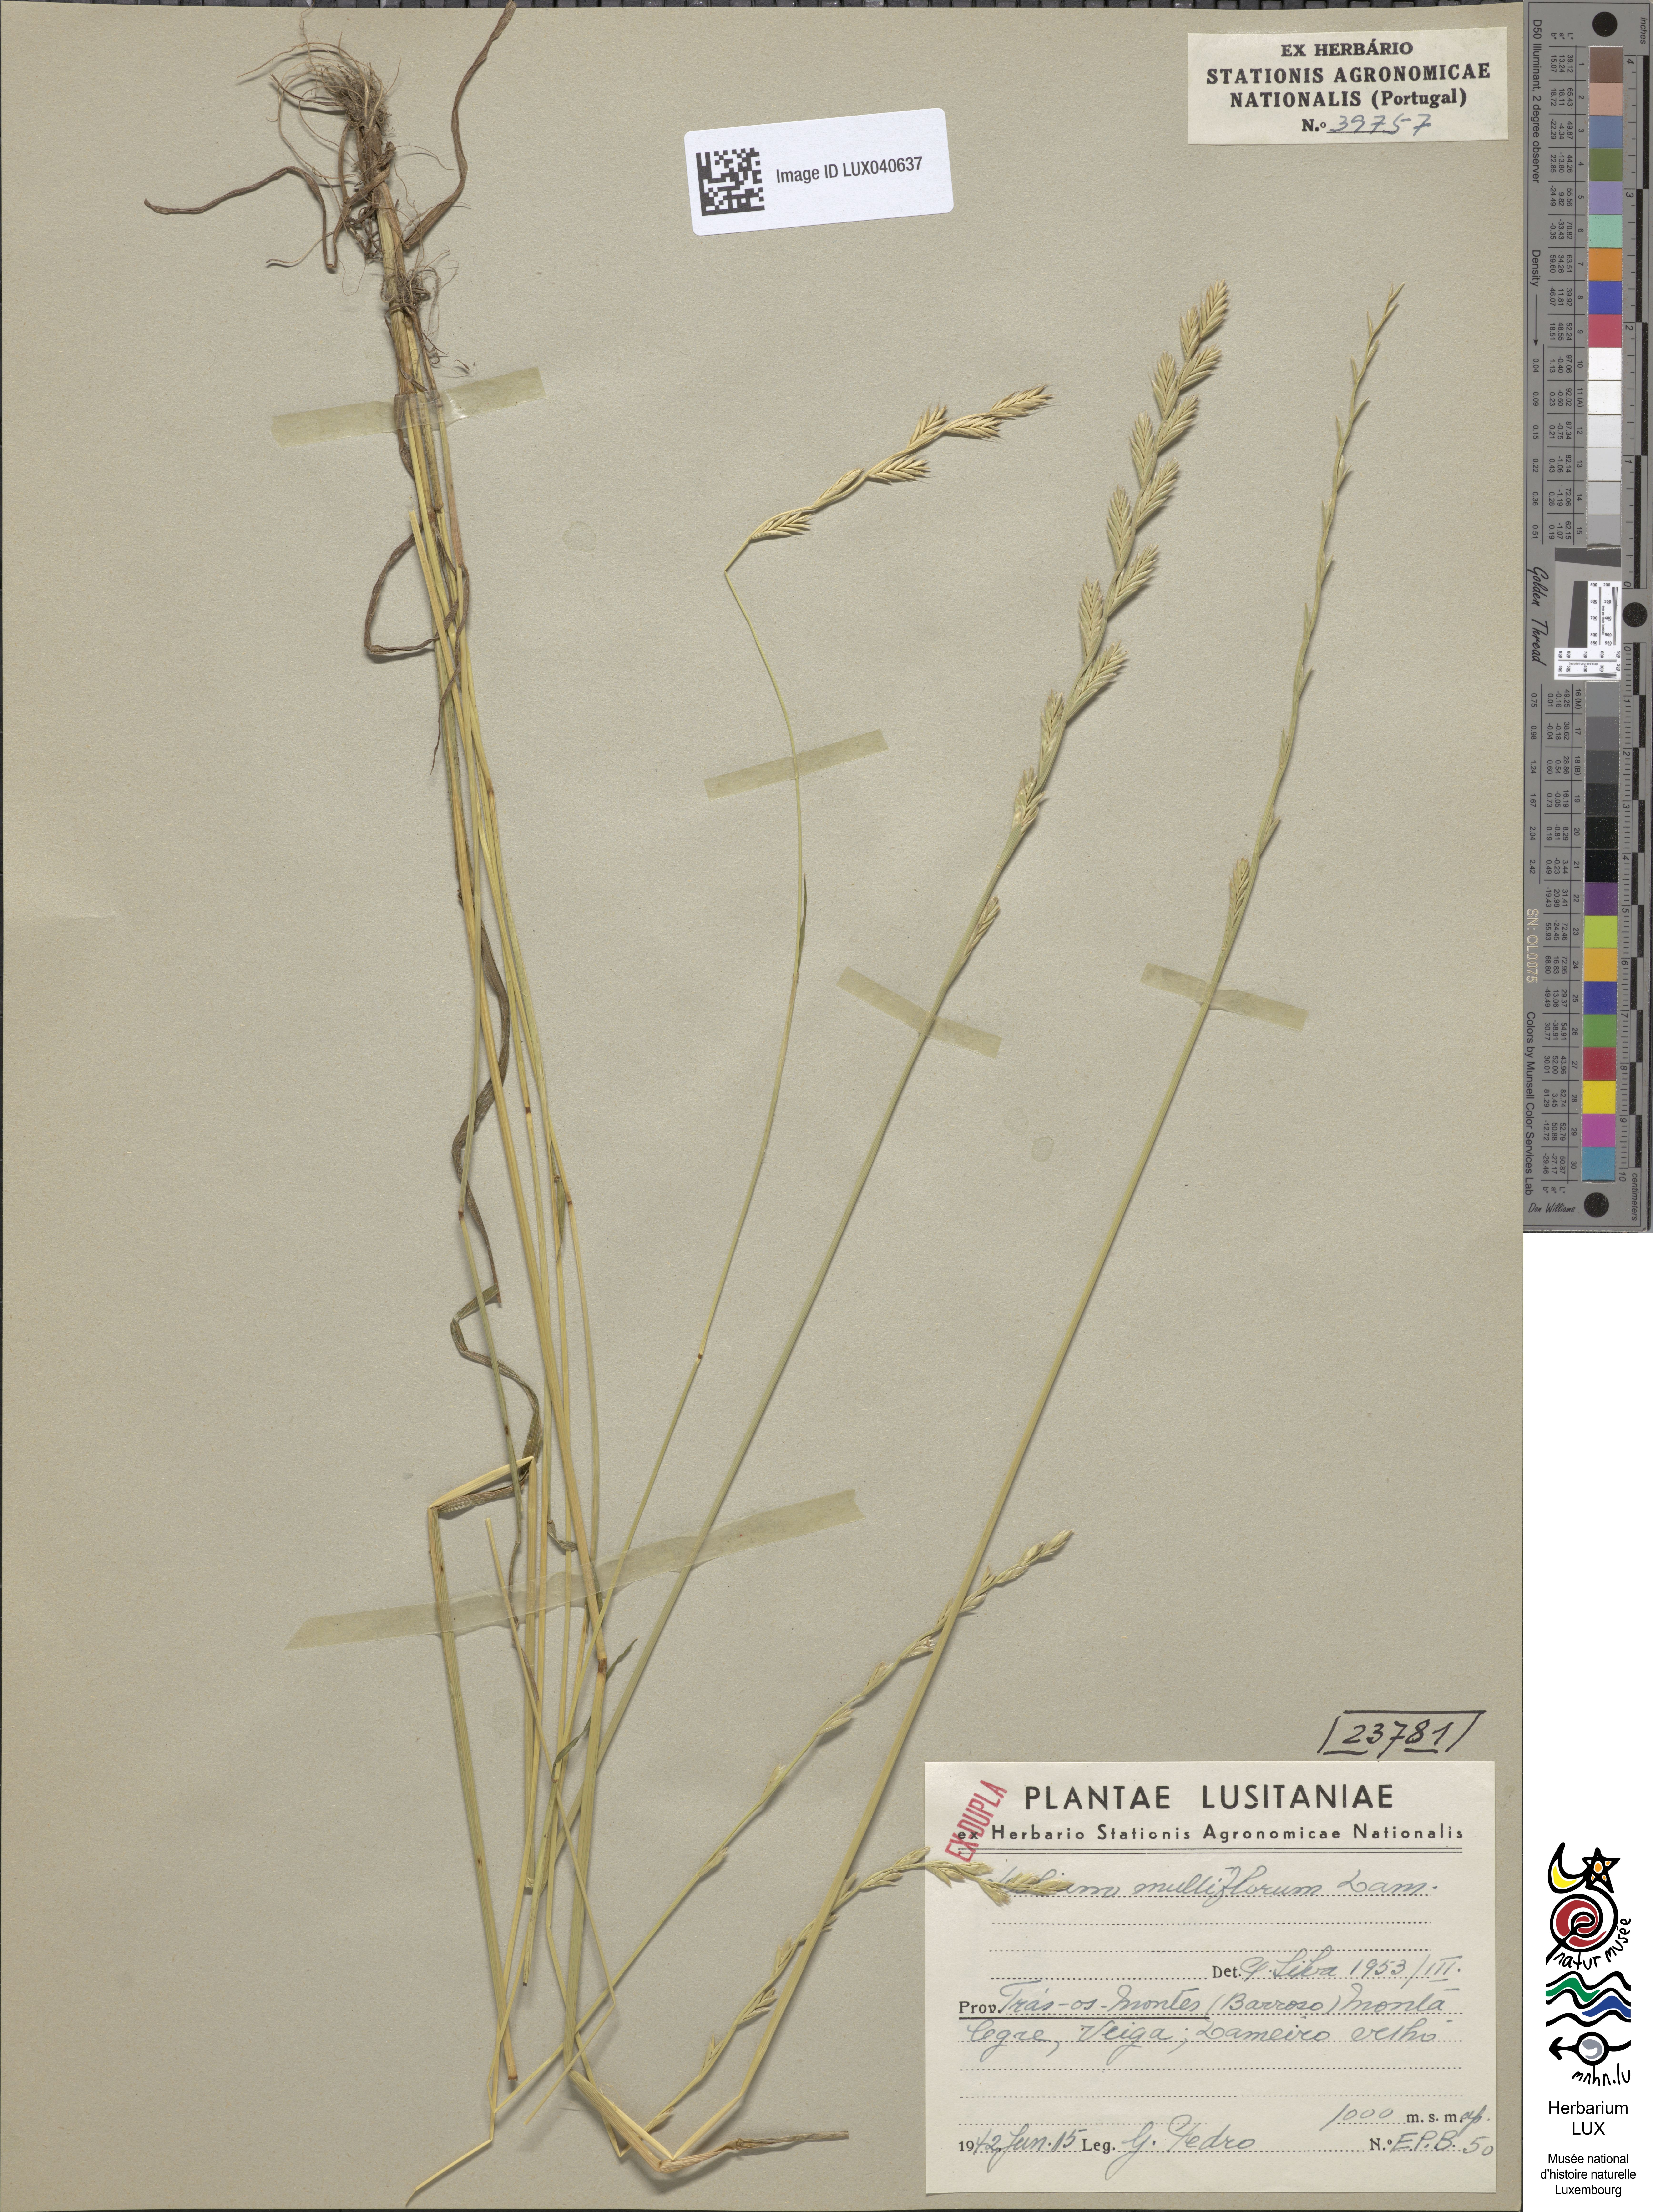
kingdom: Plantae
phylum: Tracheophyta
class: Liliopsida
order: Poales
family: Poaceae
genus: Lolium
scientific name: Lolium multiflorum
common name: Annual ryegrass
